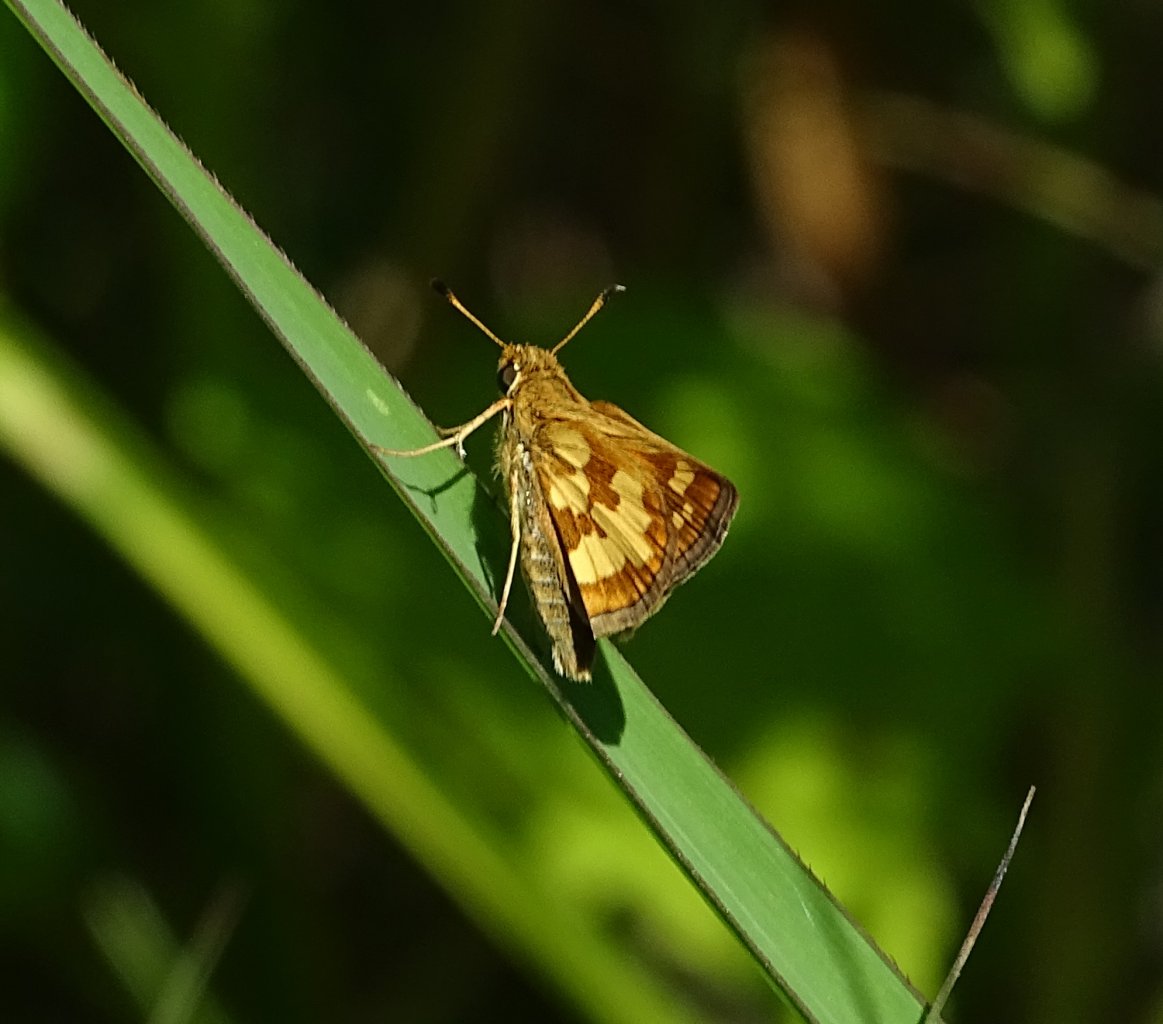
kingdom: Animalia
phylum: Arthropoda
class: Insecta
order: Lepidoptera
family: Hesperiidae
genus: Polites
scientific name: Polites coras
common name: Peck's Skipper
